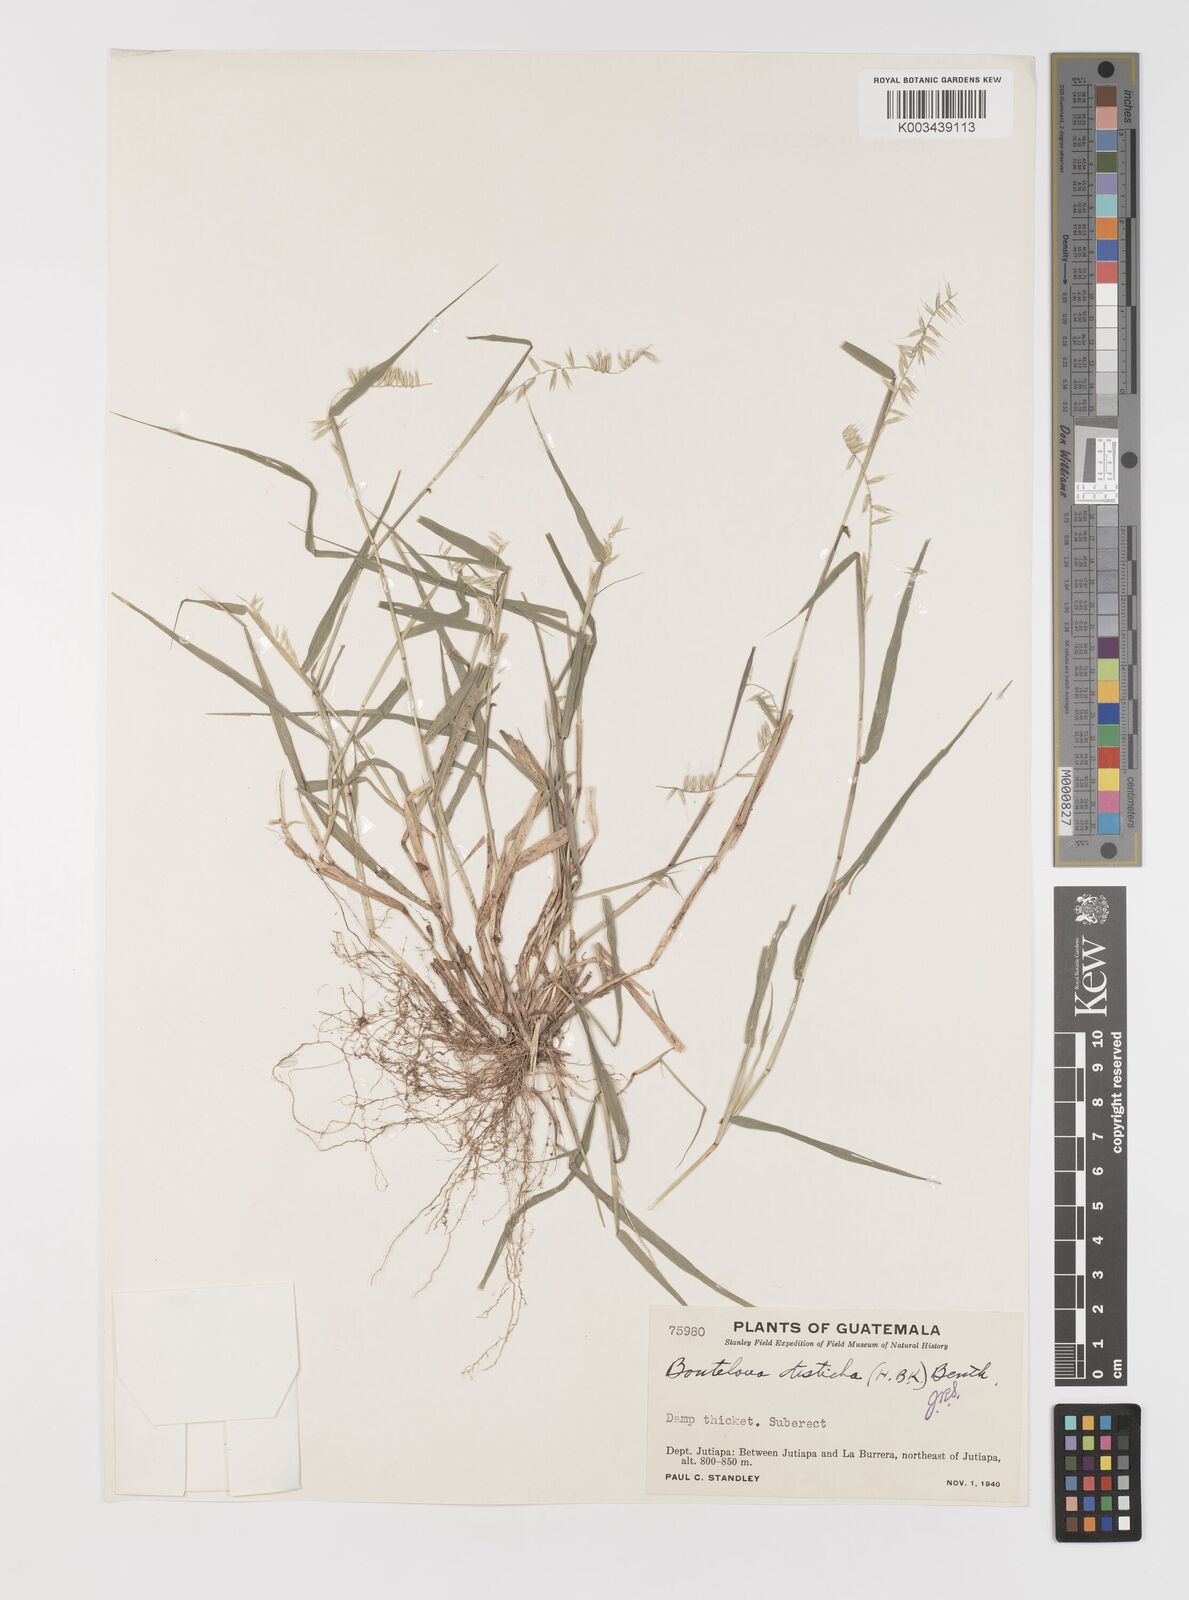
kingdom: Plantae
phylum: Tracheophyta
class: Liliopsida
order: Poales
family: Poaceae
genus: Bouteloua
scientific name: Bouteloua disticha
